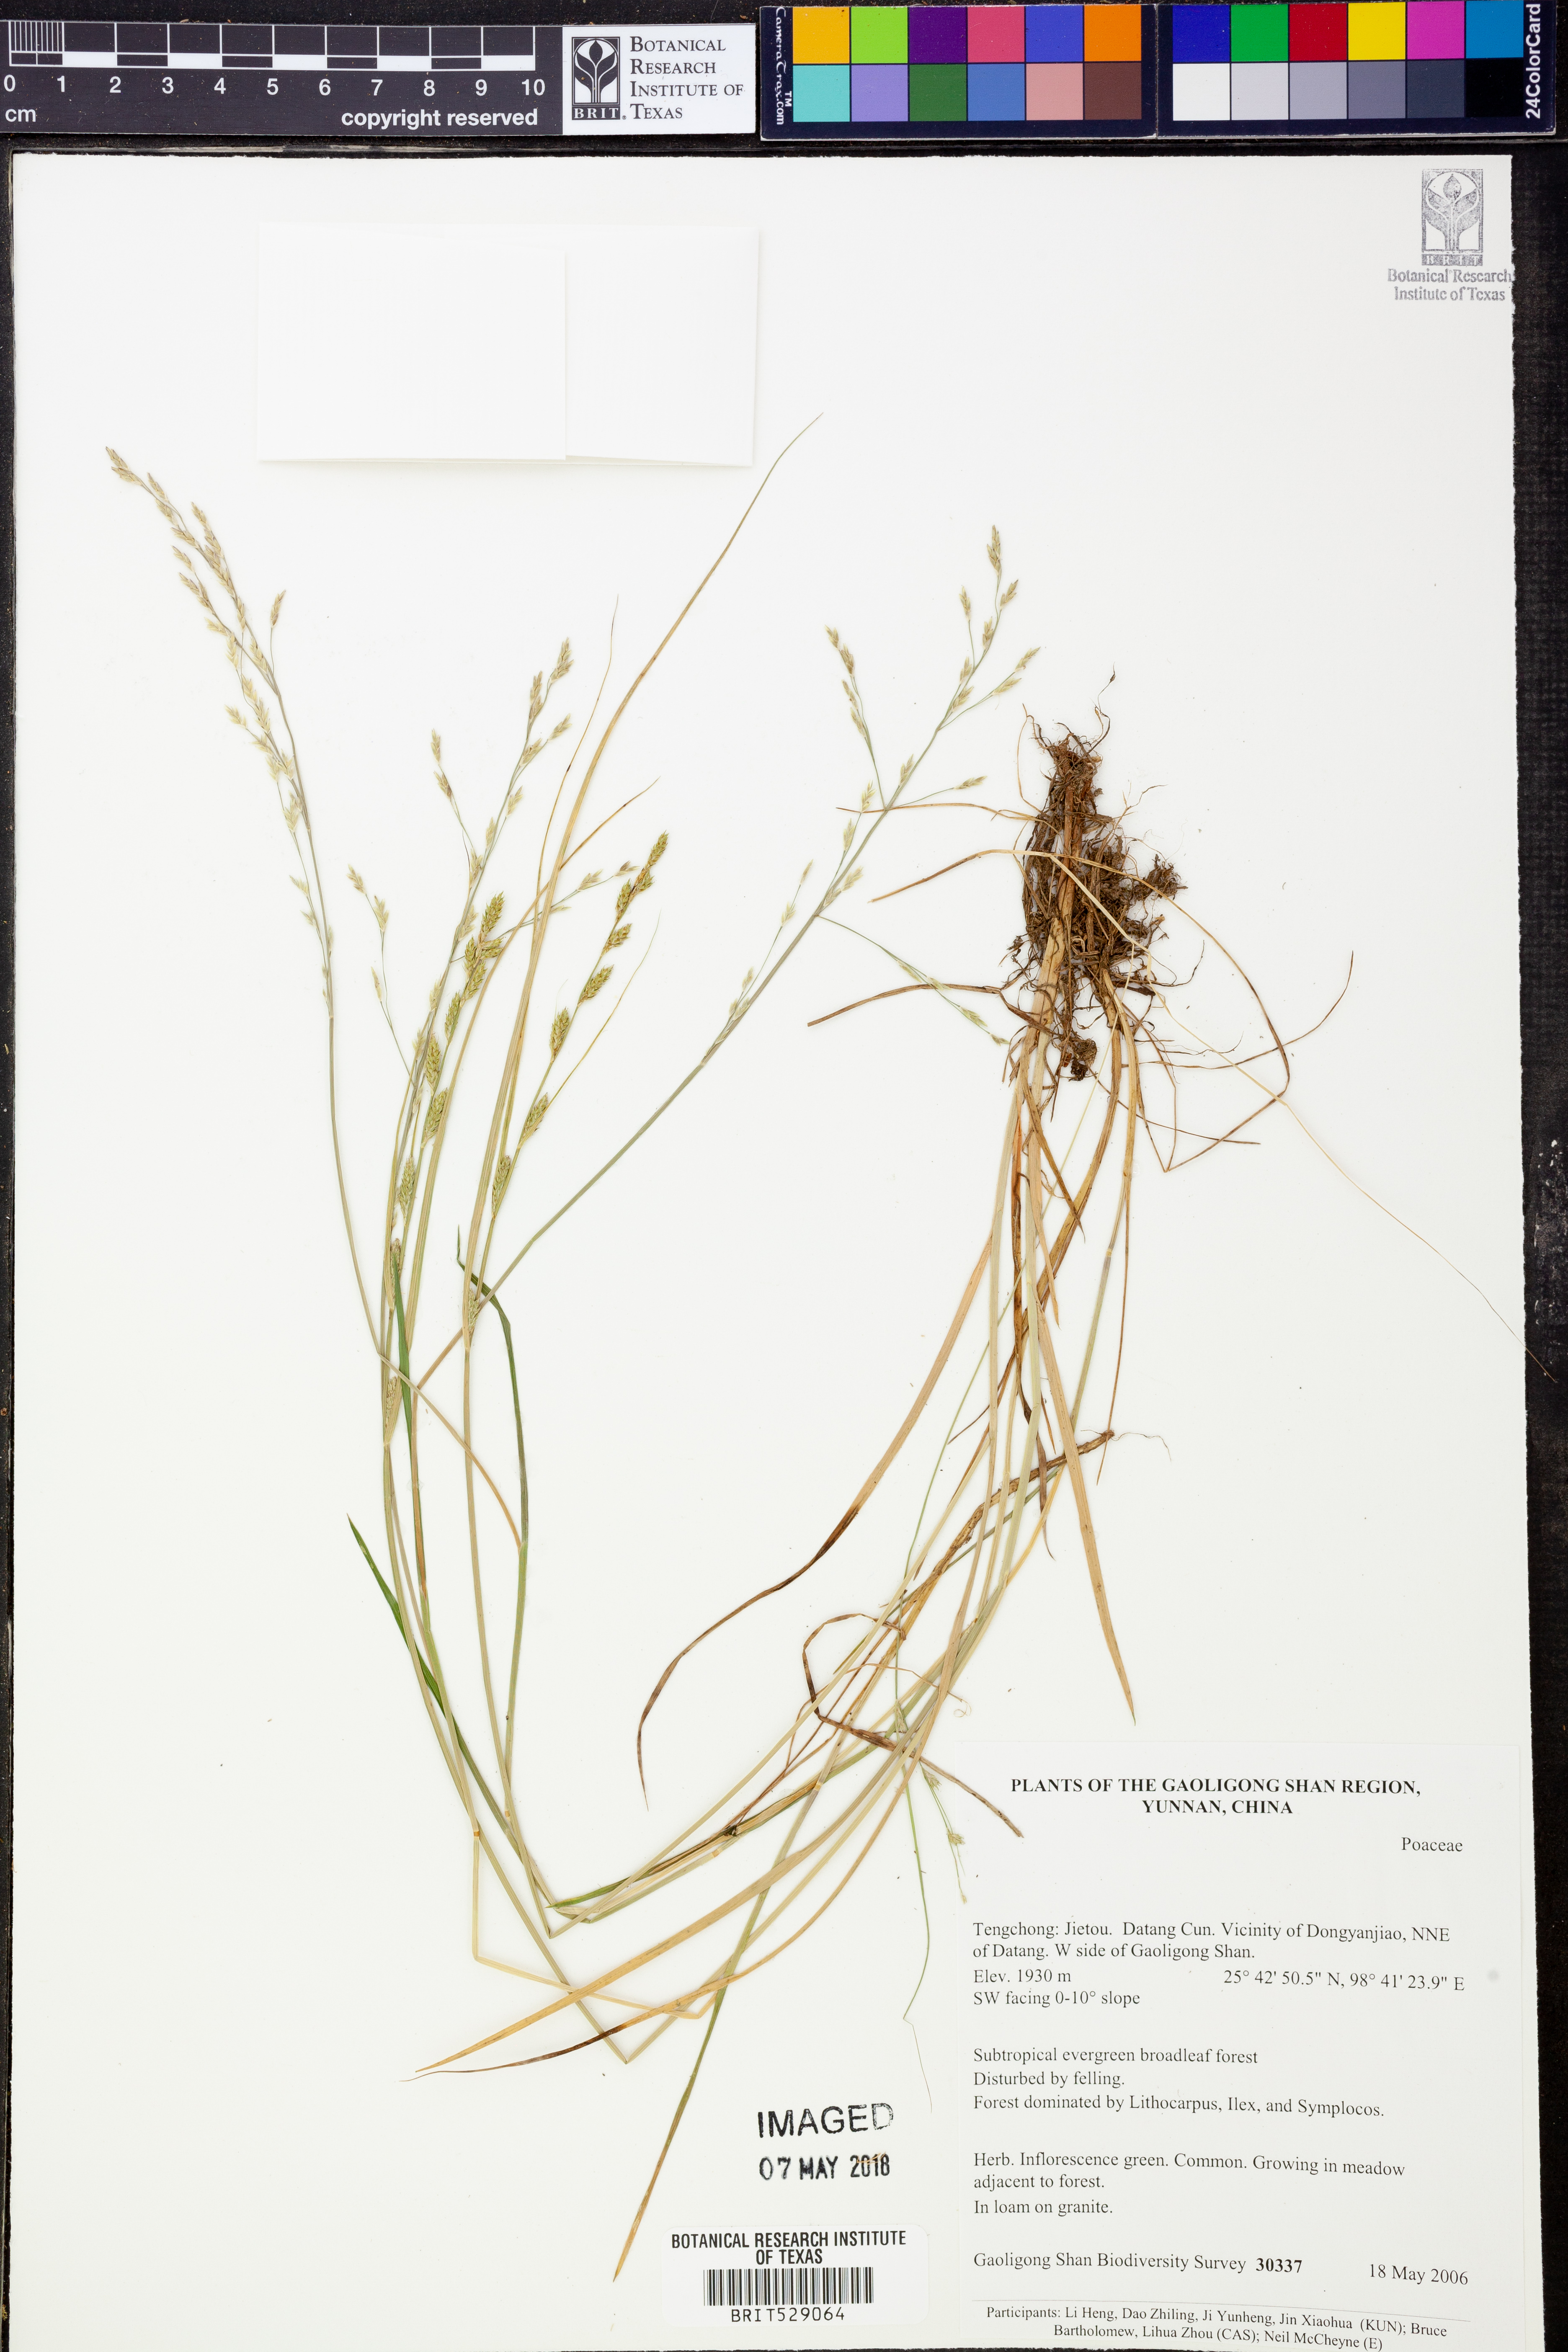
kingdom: Plantae
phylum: Tracheophyta
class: Liliopsida
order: Poales
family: Poaceae
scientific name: Poaceae
